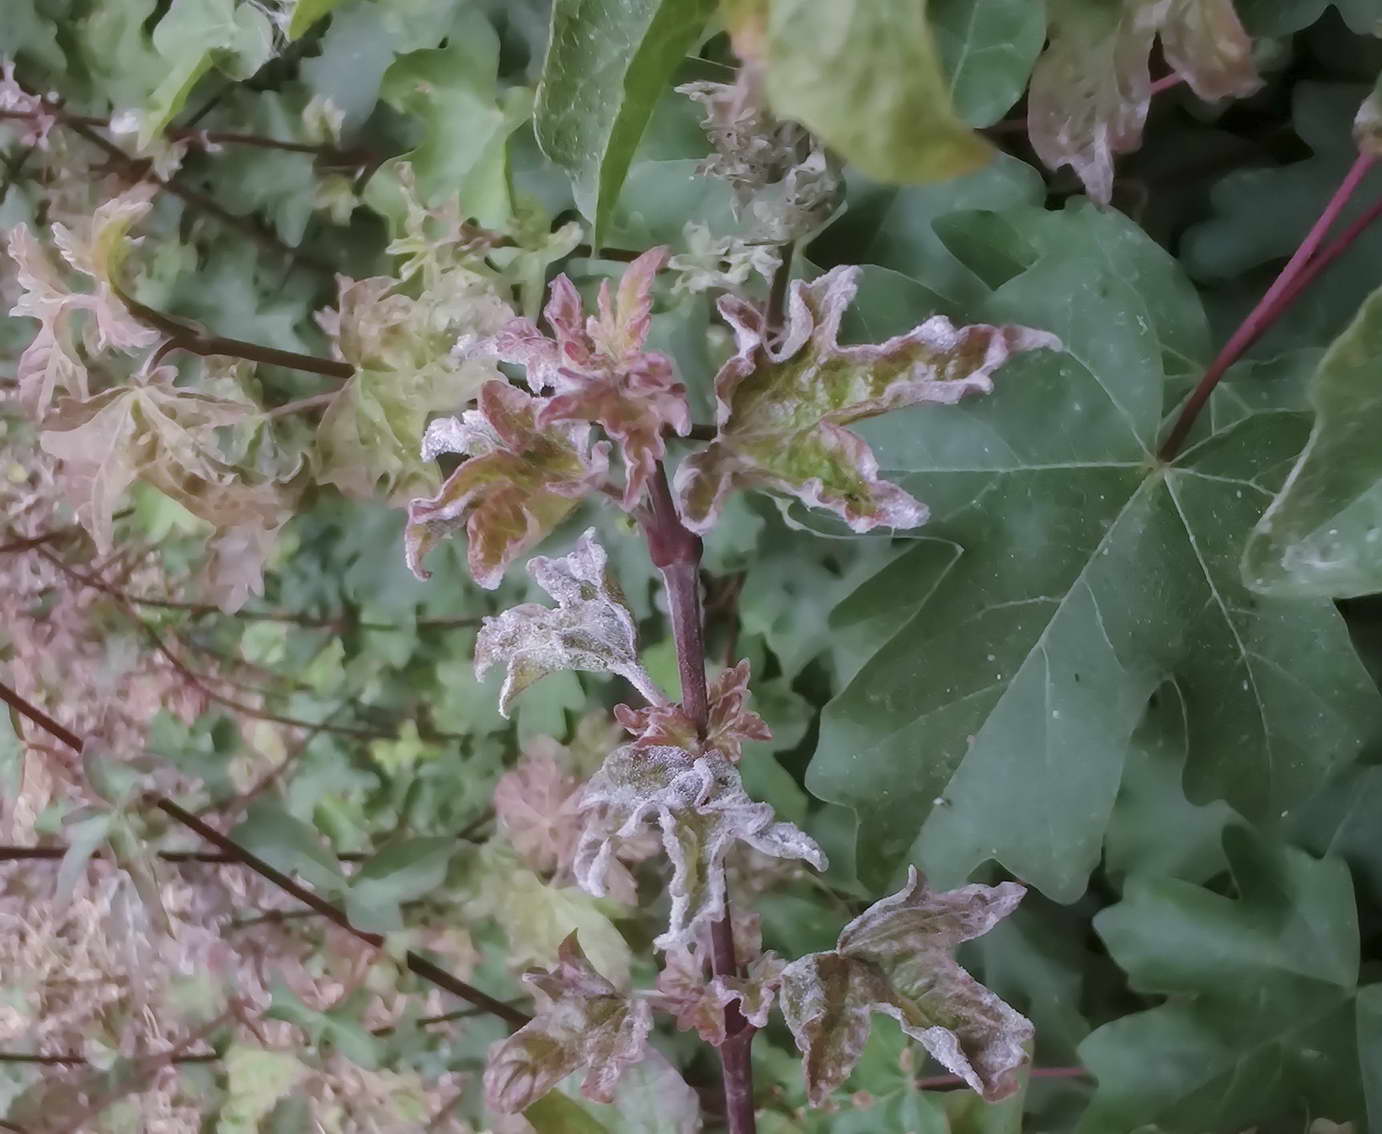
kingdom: Fungi
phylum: Ascomycota
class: Leotiomycetes
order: Helotiales
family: Erysiphaceae
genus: Sawadaea
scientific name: Sawadaea bicornis
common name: Maple mildew
